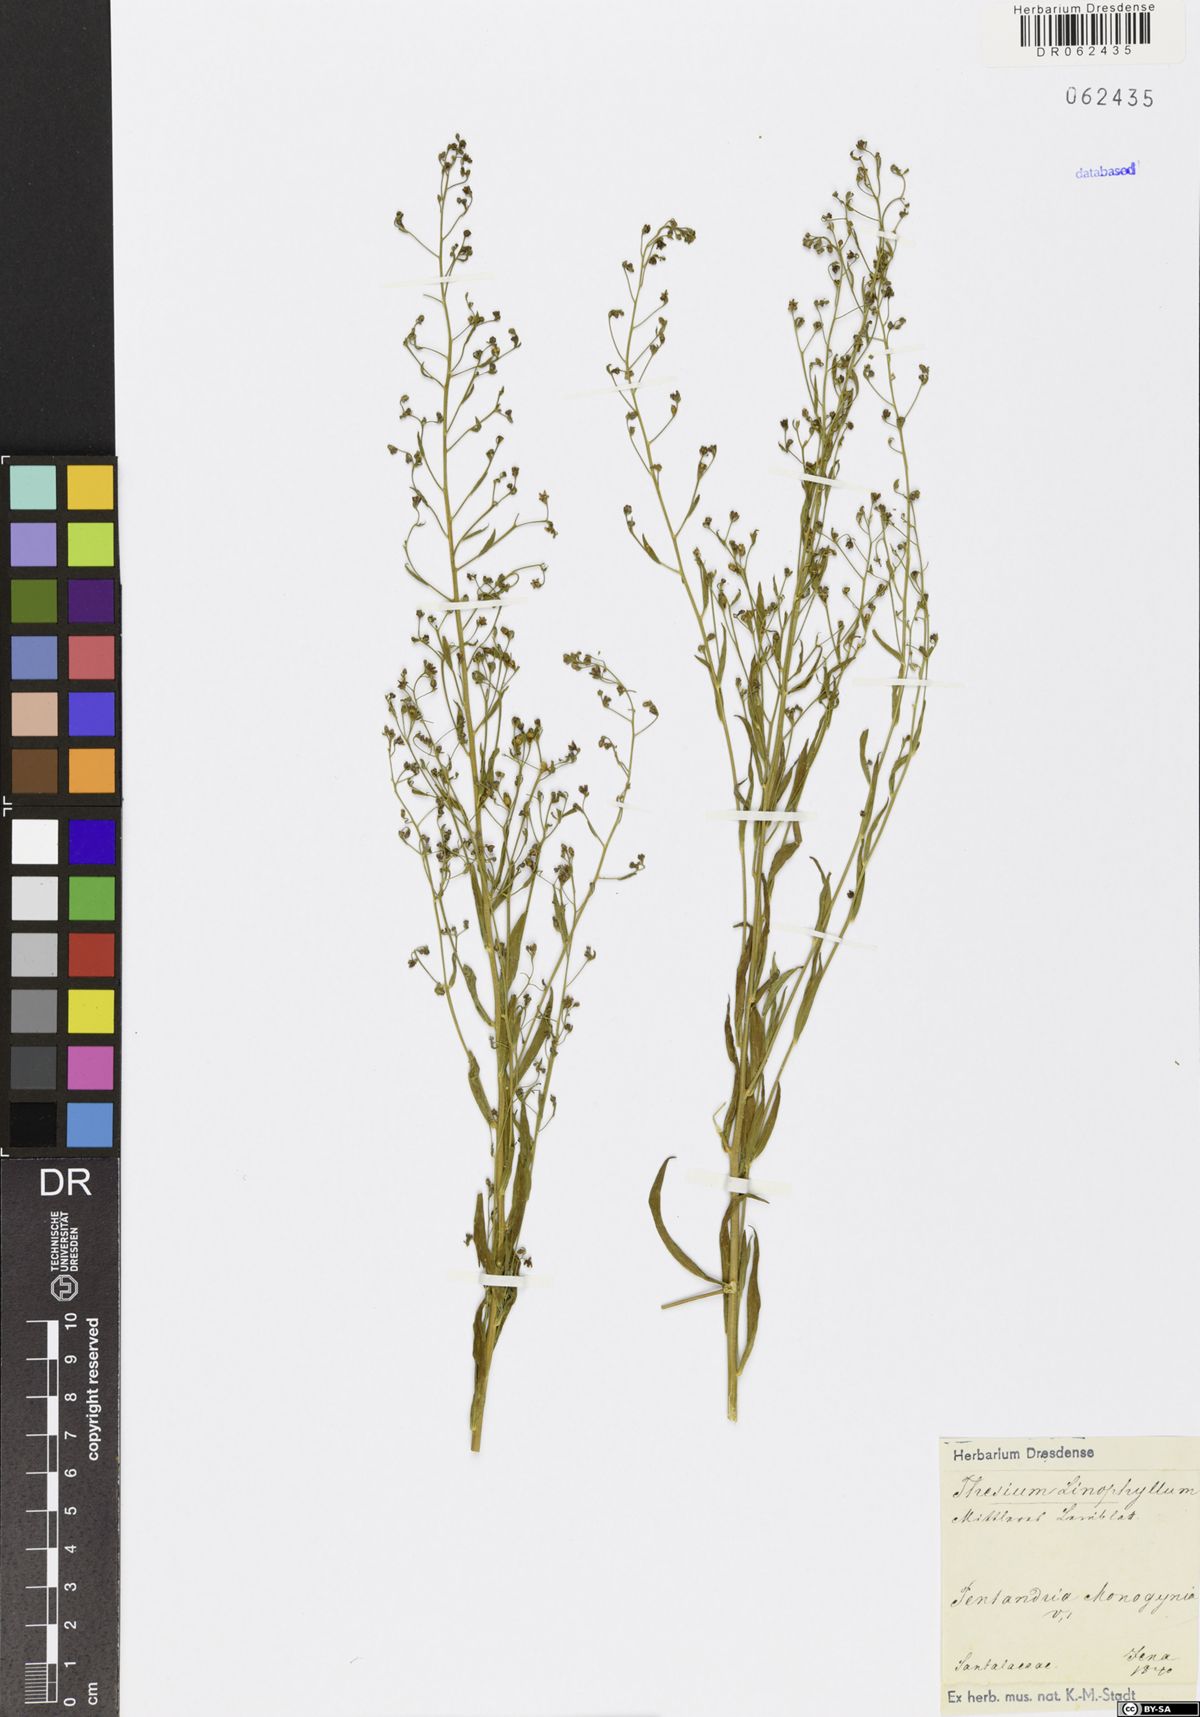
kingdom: Plantae
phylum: Tracheophyta
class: Magnoliopsida
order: Santalales
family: Thesiaceae
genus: Thesium
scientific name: Thesium linophyllon
